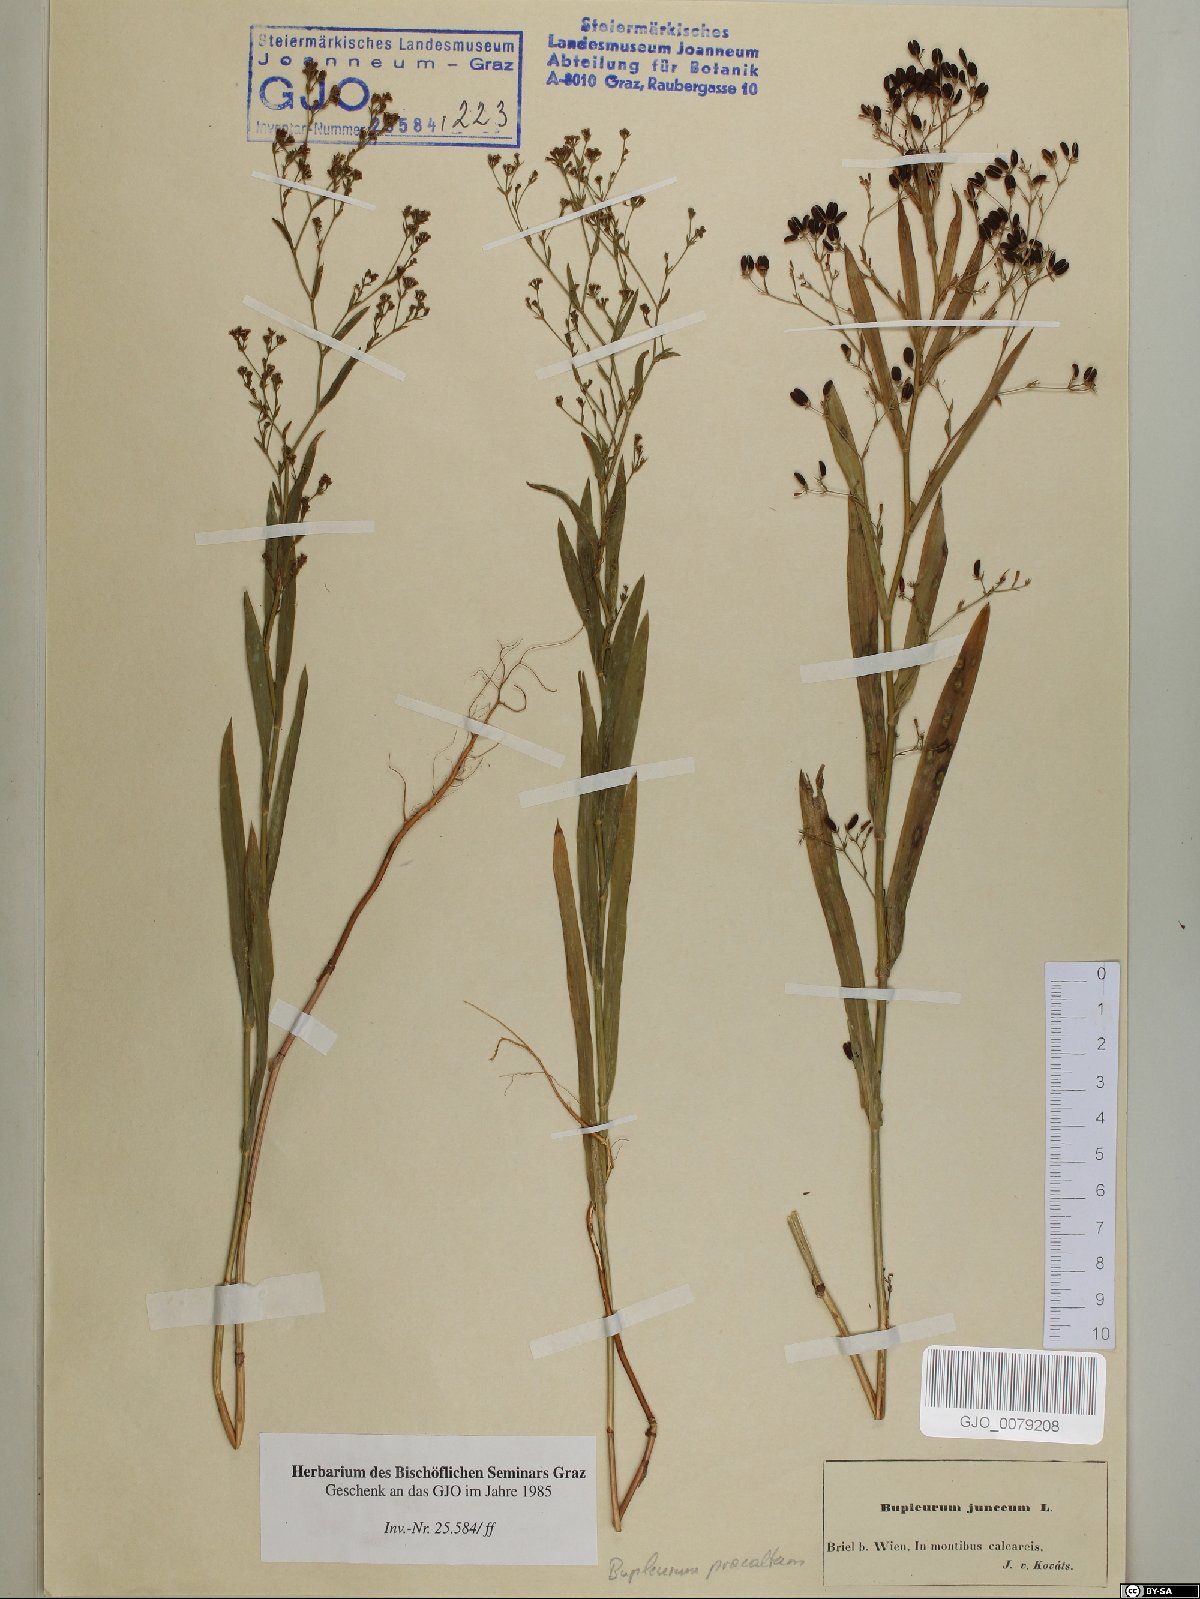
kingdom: Plantae
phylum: Tracheophyta
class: Magnoliopsida
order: Apiales
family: Apiaceae
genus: Bupleurum
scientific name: Bupleurum praealtum
